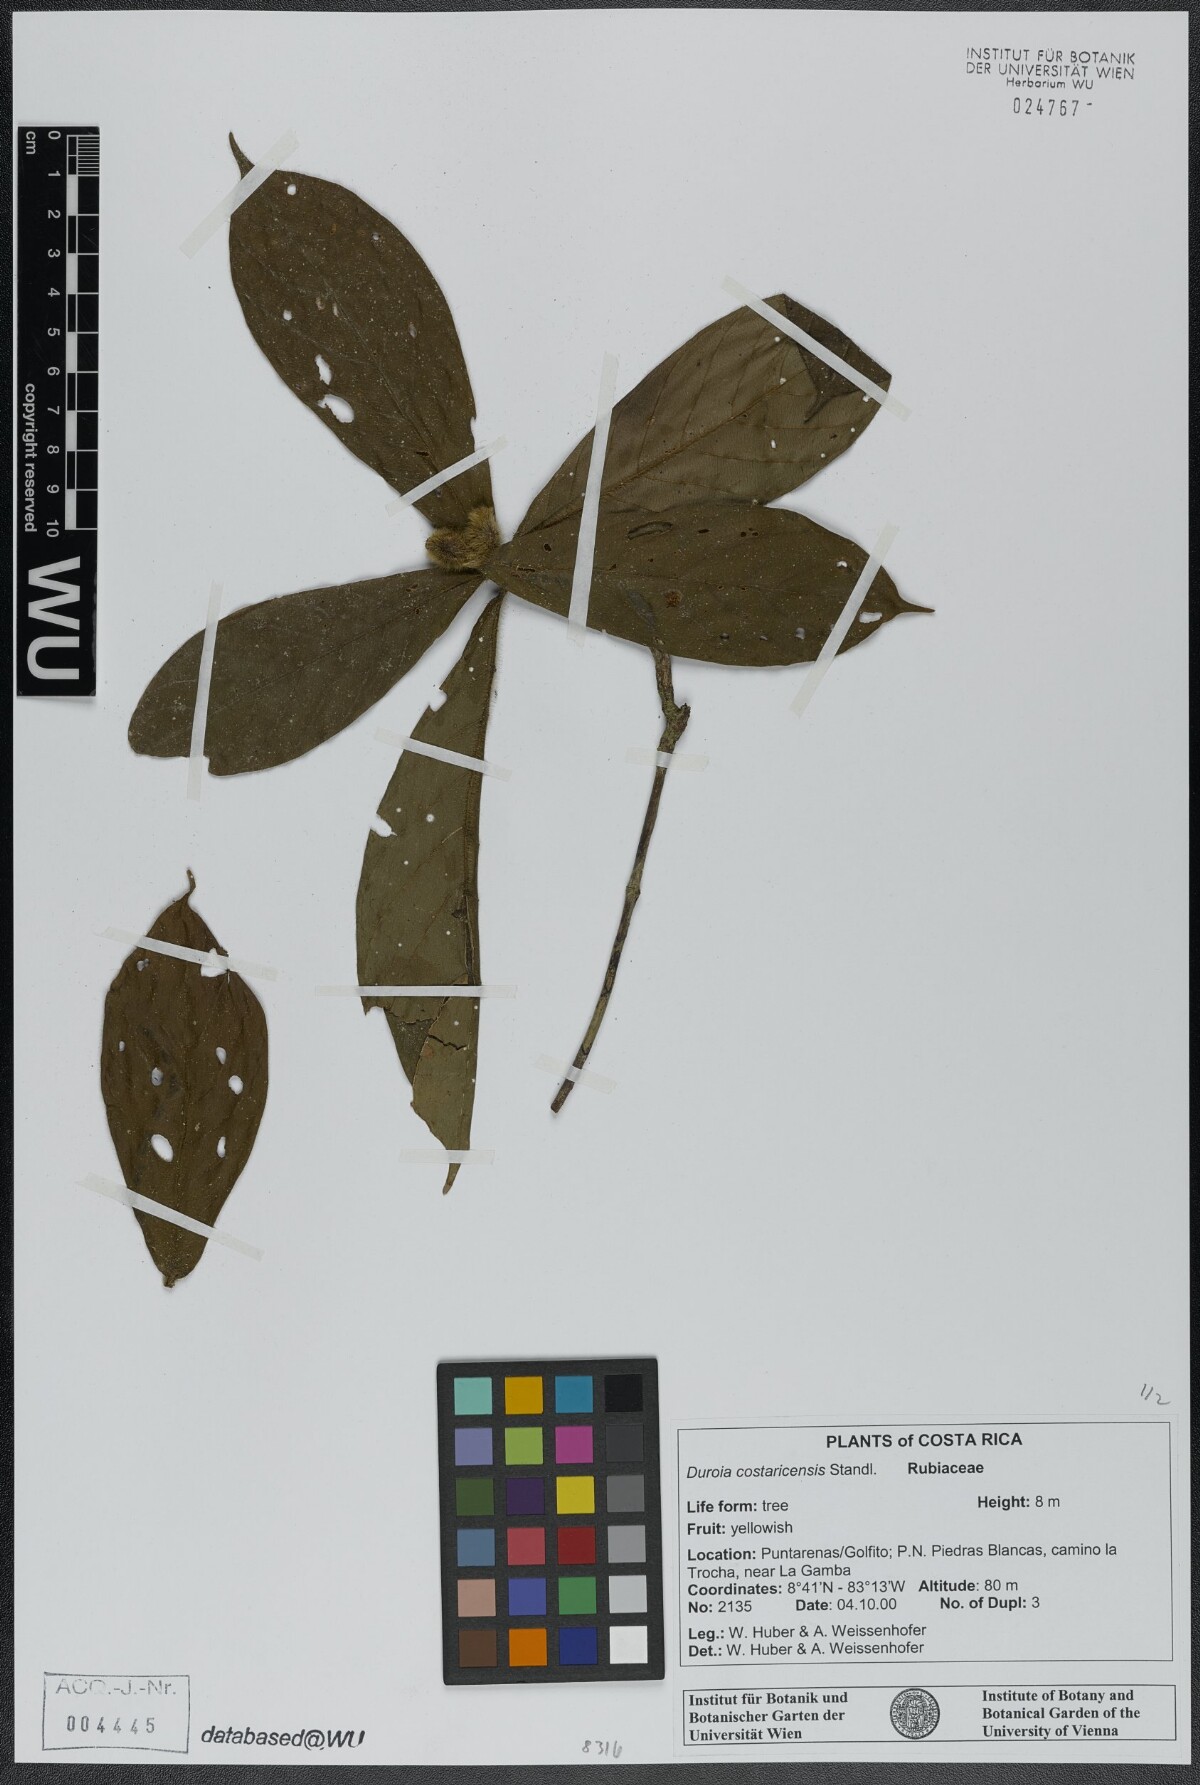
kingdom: Plantae
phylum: Tracheophyta
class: Magnoliopsida
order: Gentianales
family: Rubiaceae
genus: Duroia
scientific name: Duroia costaricensis
